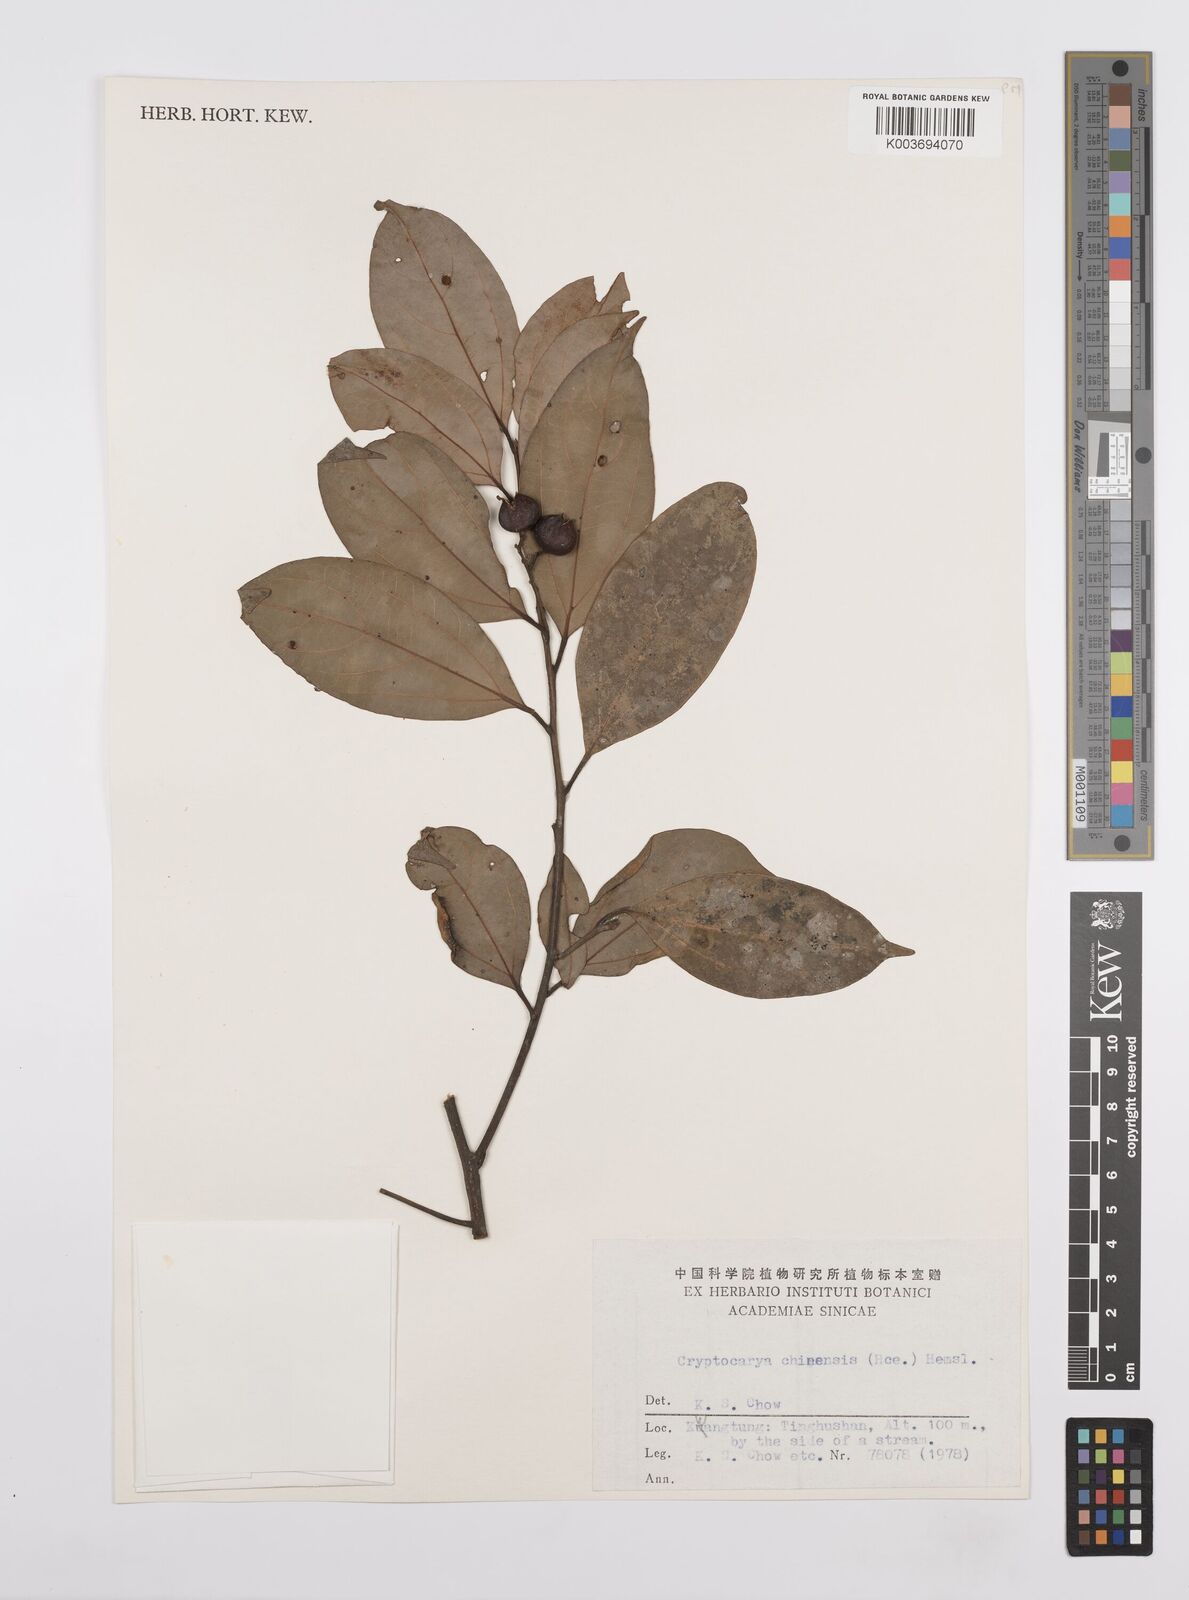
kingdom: Plantae
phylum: Tracheophyta
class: Magnoliopsida
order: Laurales
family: Lauraceae
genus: Cryptocarya
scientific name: Cryptocarya chinensis
